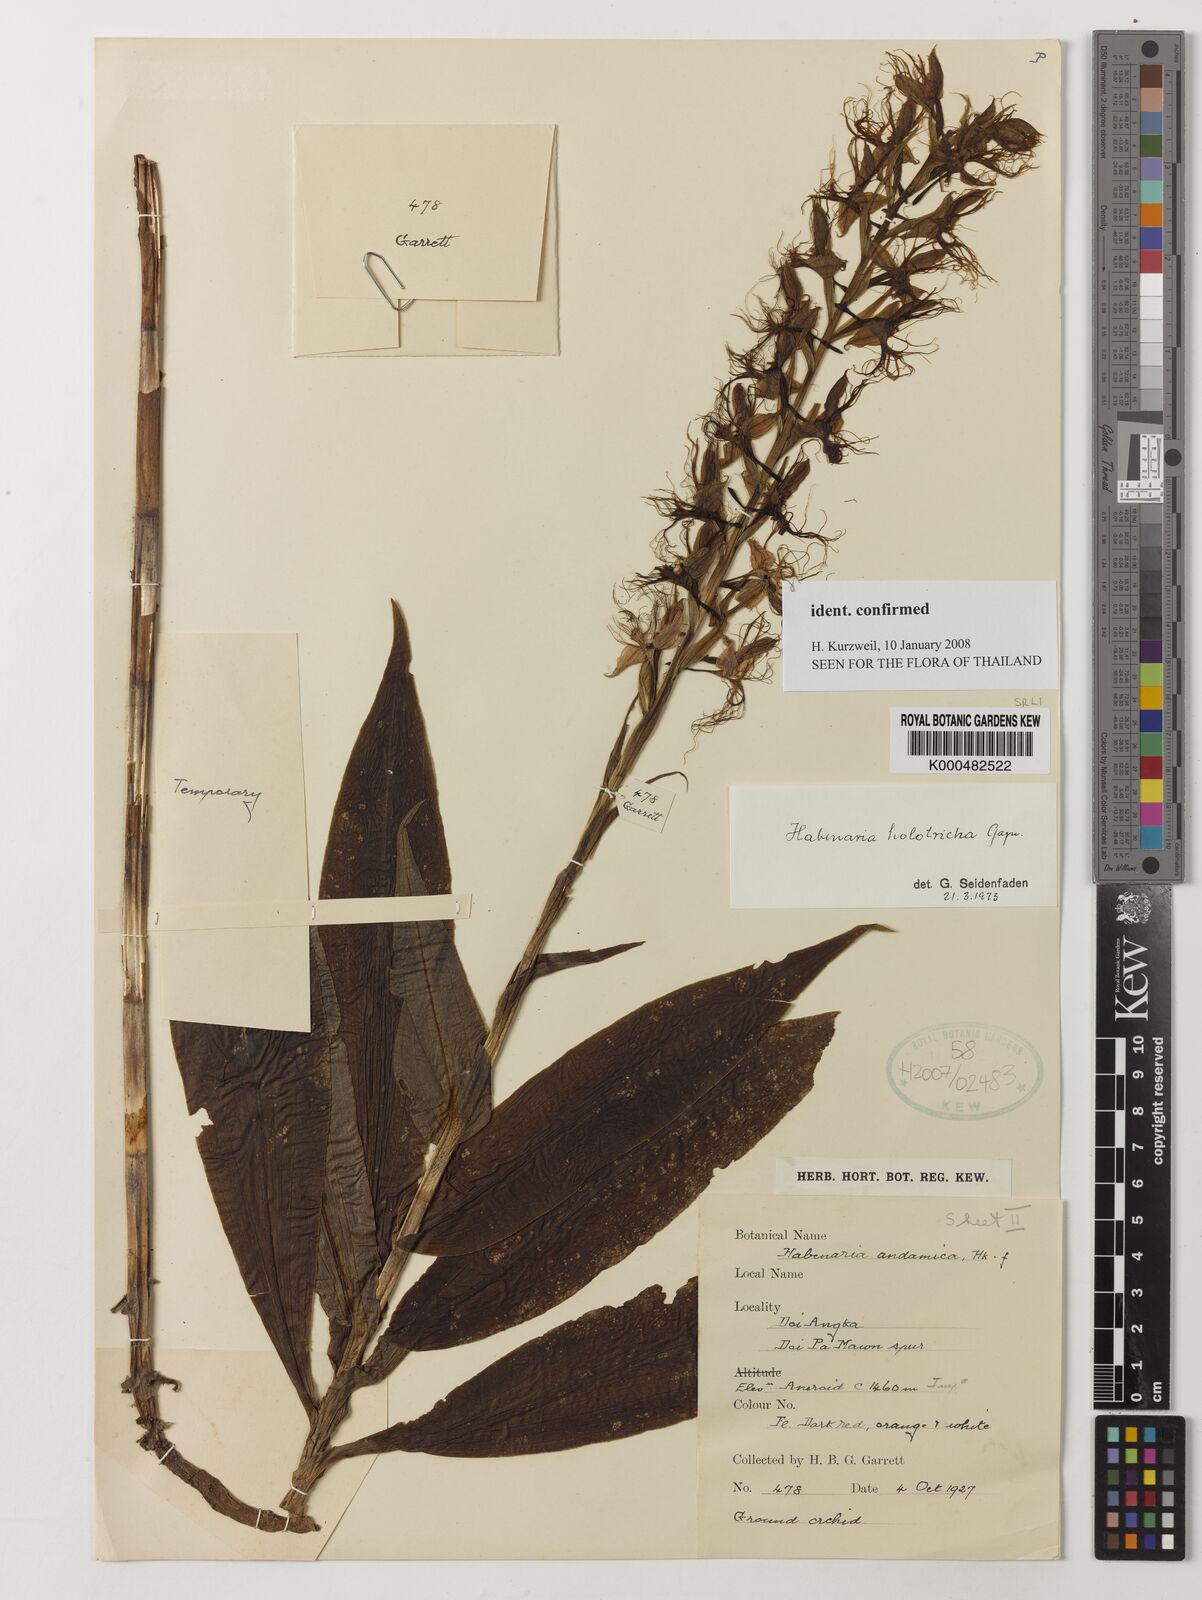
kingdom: Plantae
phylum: Tracheophyta
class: Liliopsida
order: Asparagales
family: Orchidaceae
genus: Habenaria
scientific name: Habenaria holotricha
